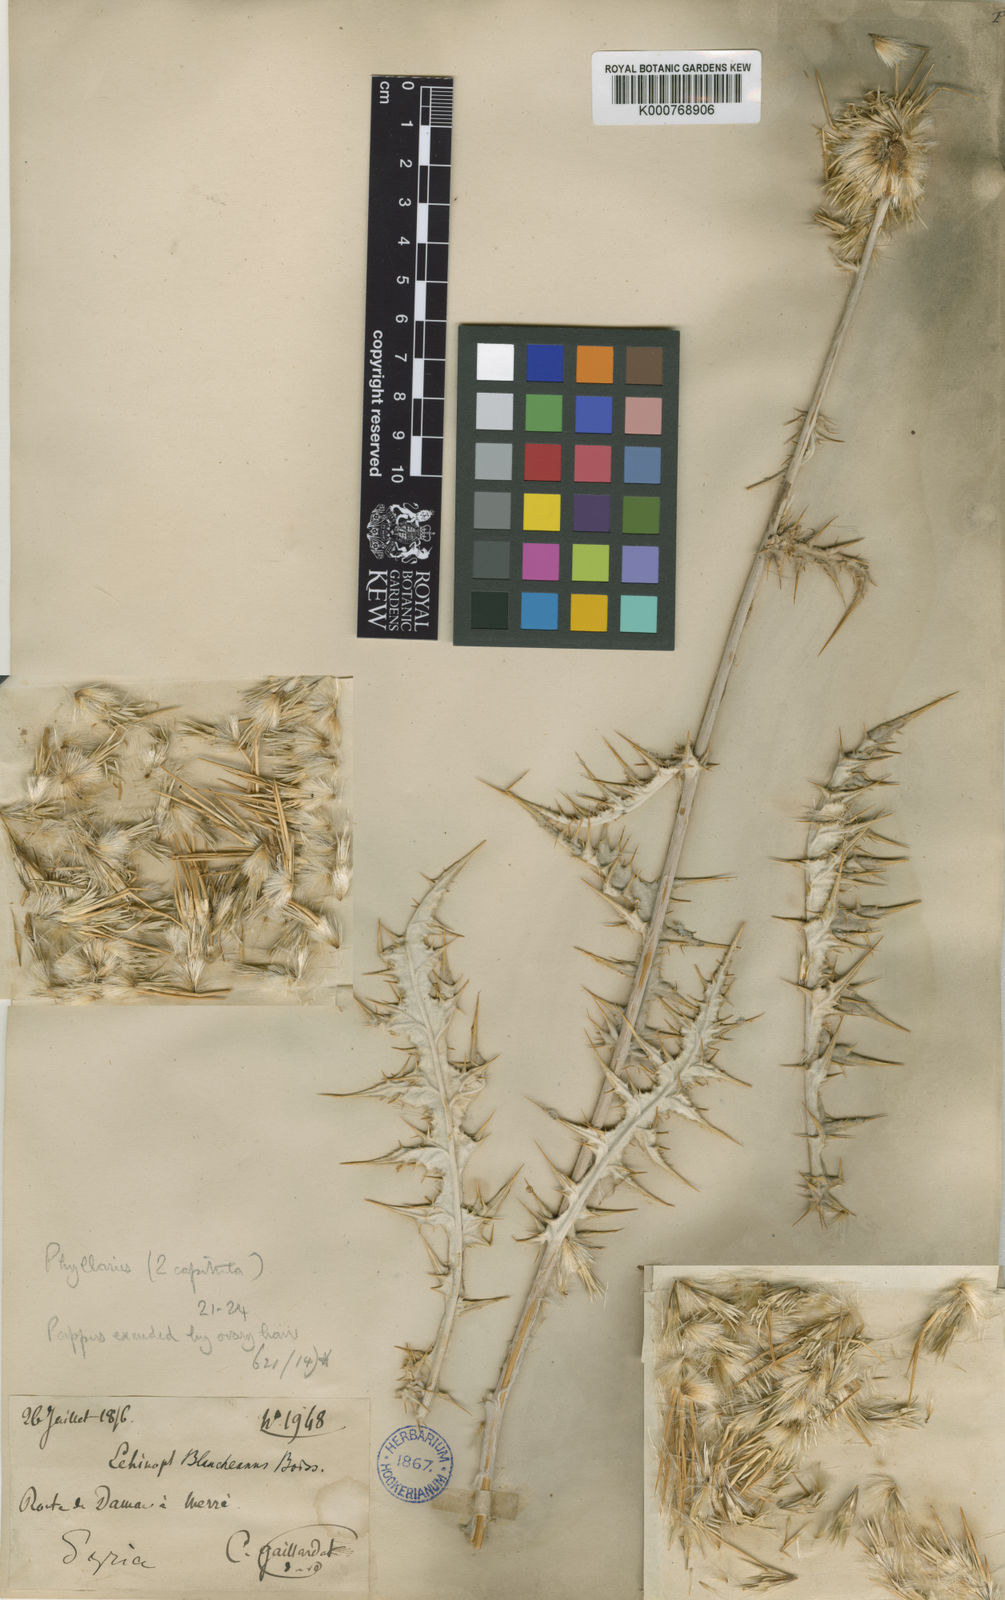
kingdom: Plantae
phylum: Tracheophyta
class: Magnoliopsida
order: Asterales
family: Asteraceae
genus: Echinops
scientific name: Echinops polyceras
